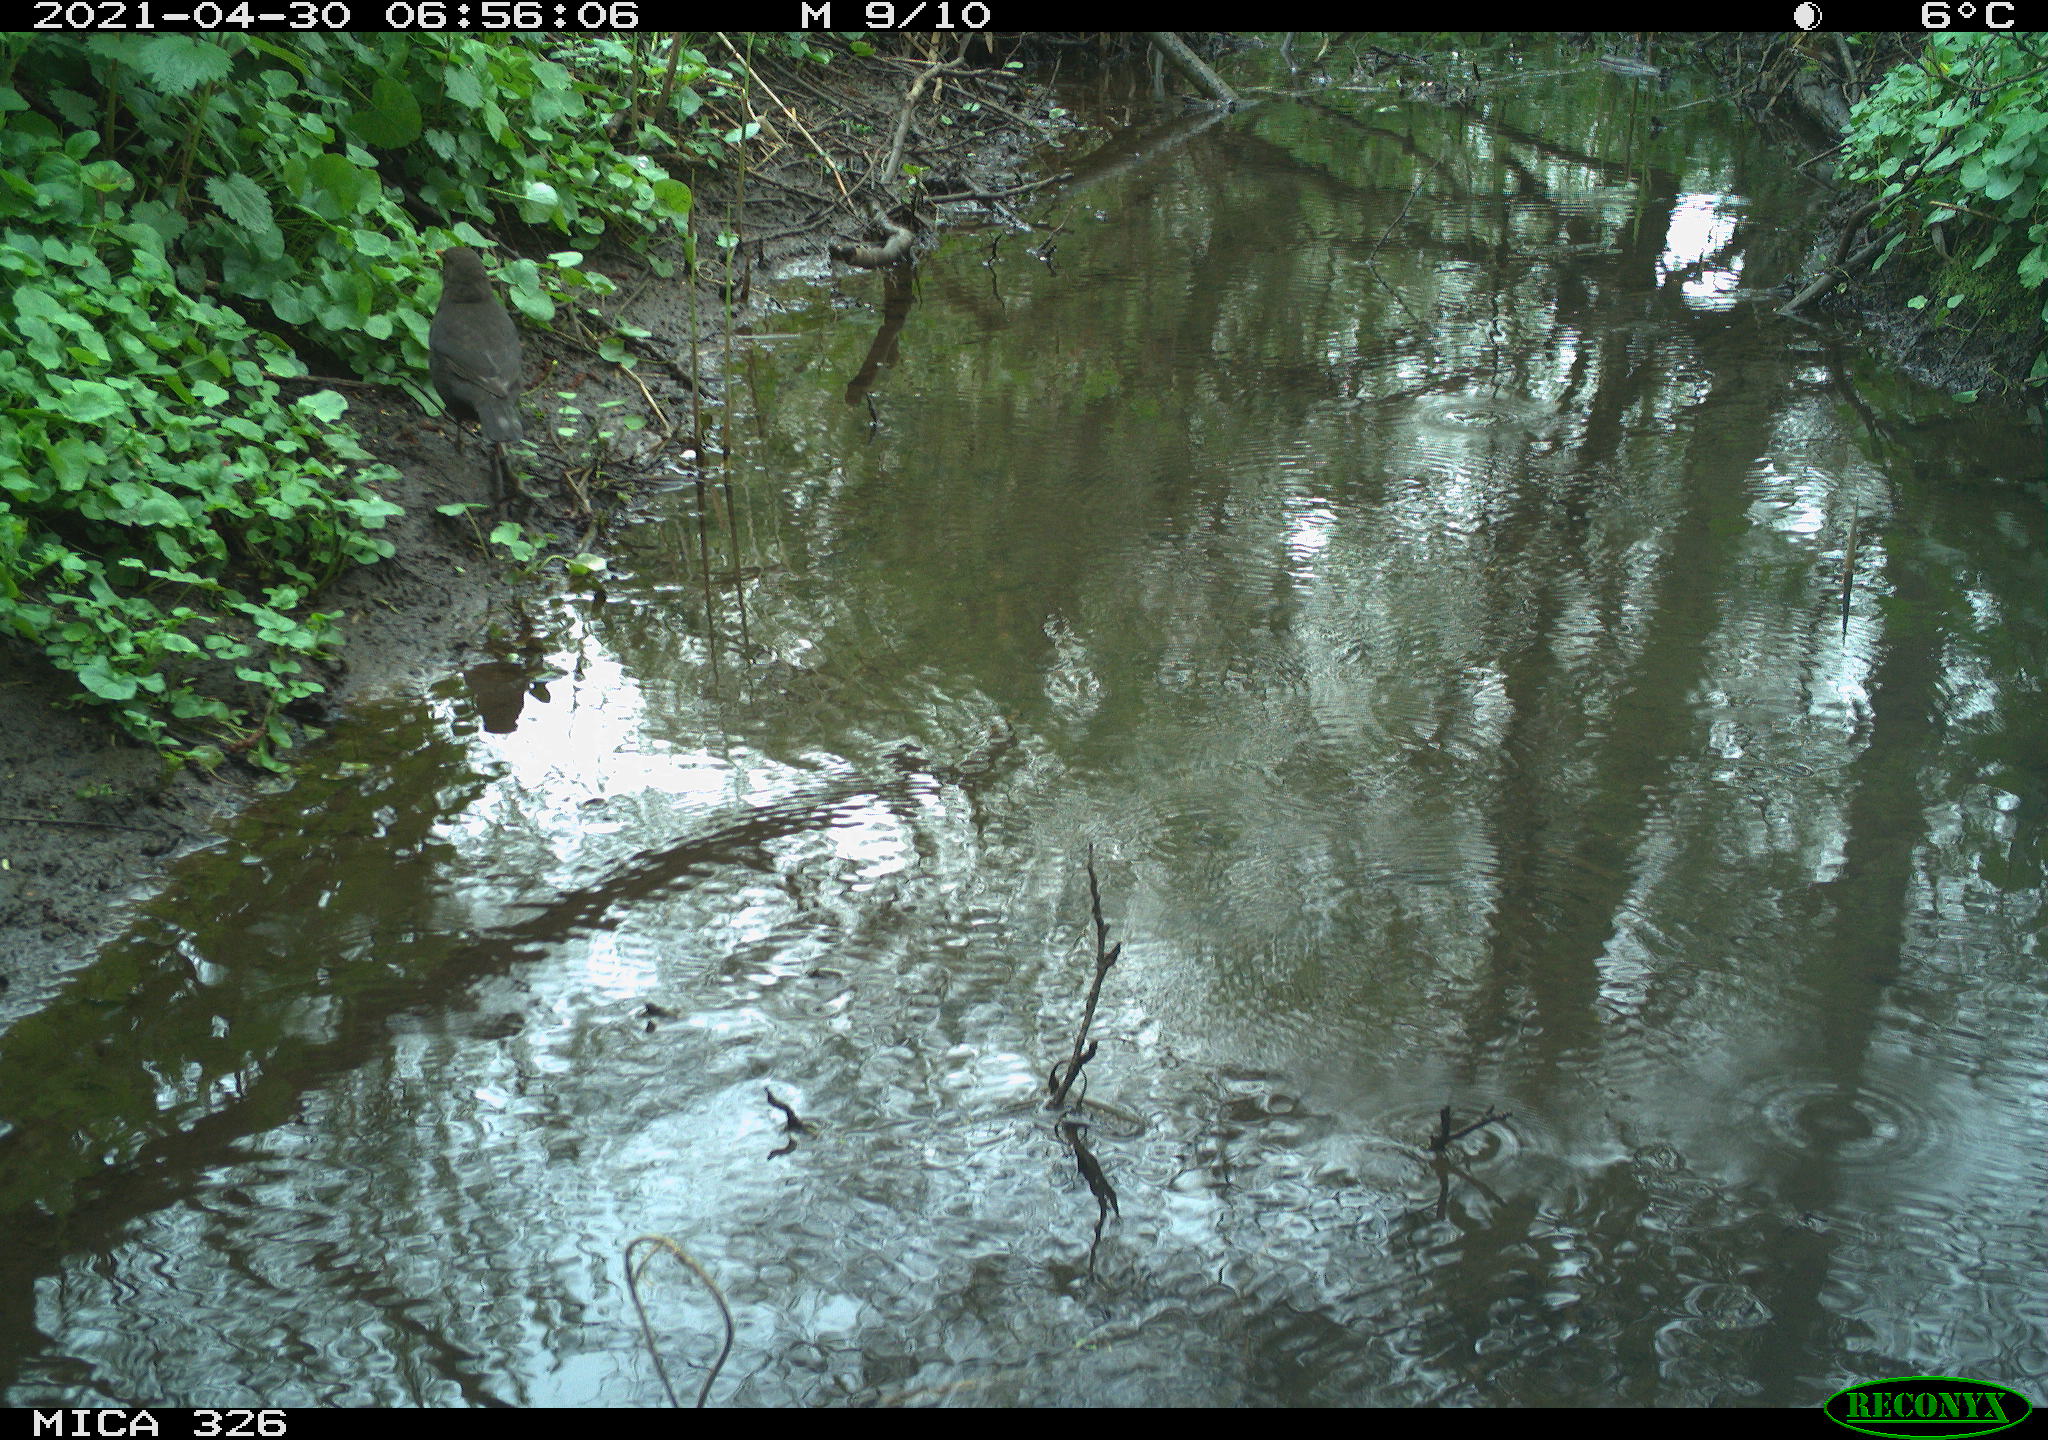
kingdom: Animalia
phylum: Chordata
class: Aves
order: Passeriformes
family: Turdidae
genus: Turdus
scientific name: Turdus merula
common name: Common blackbird
